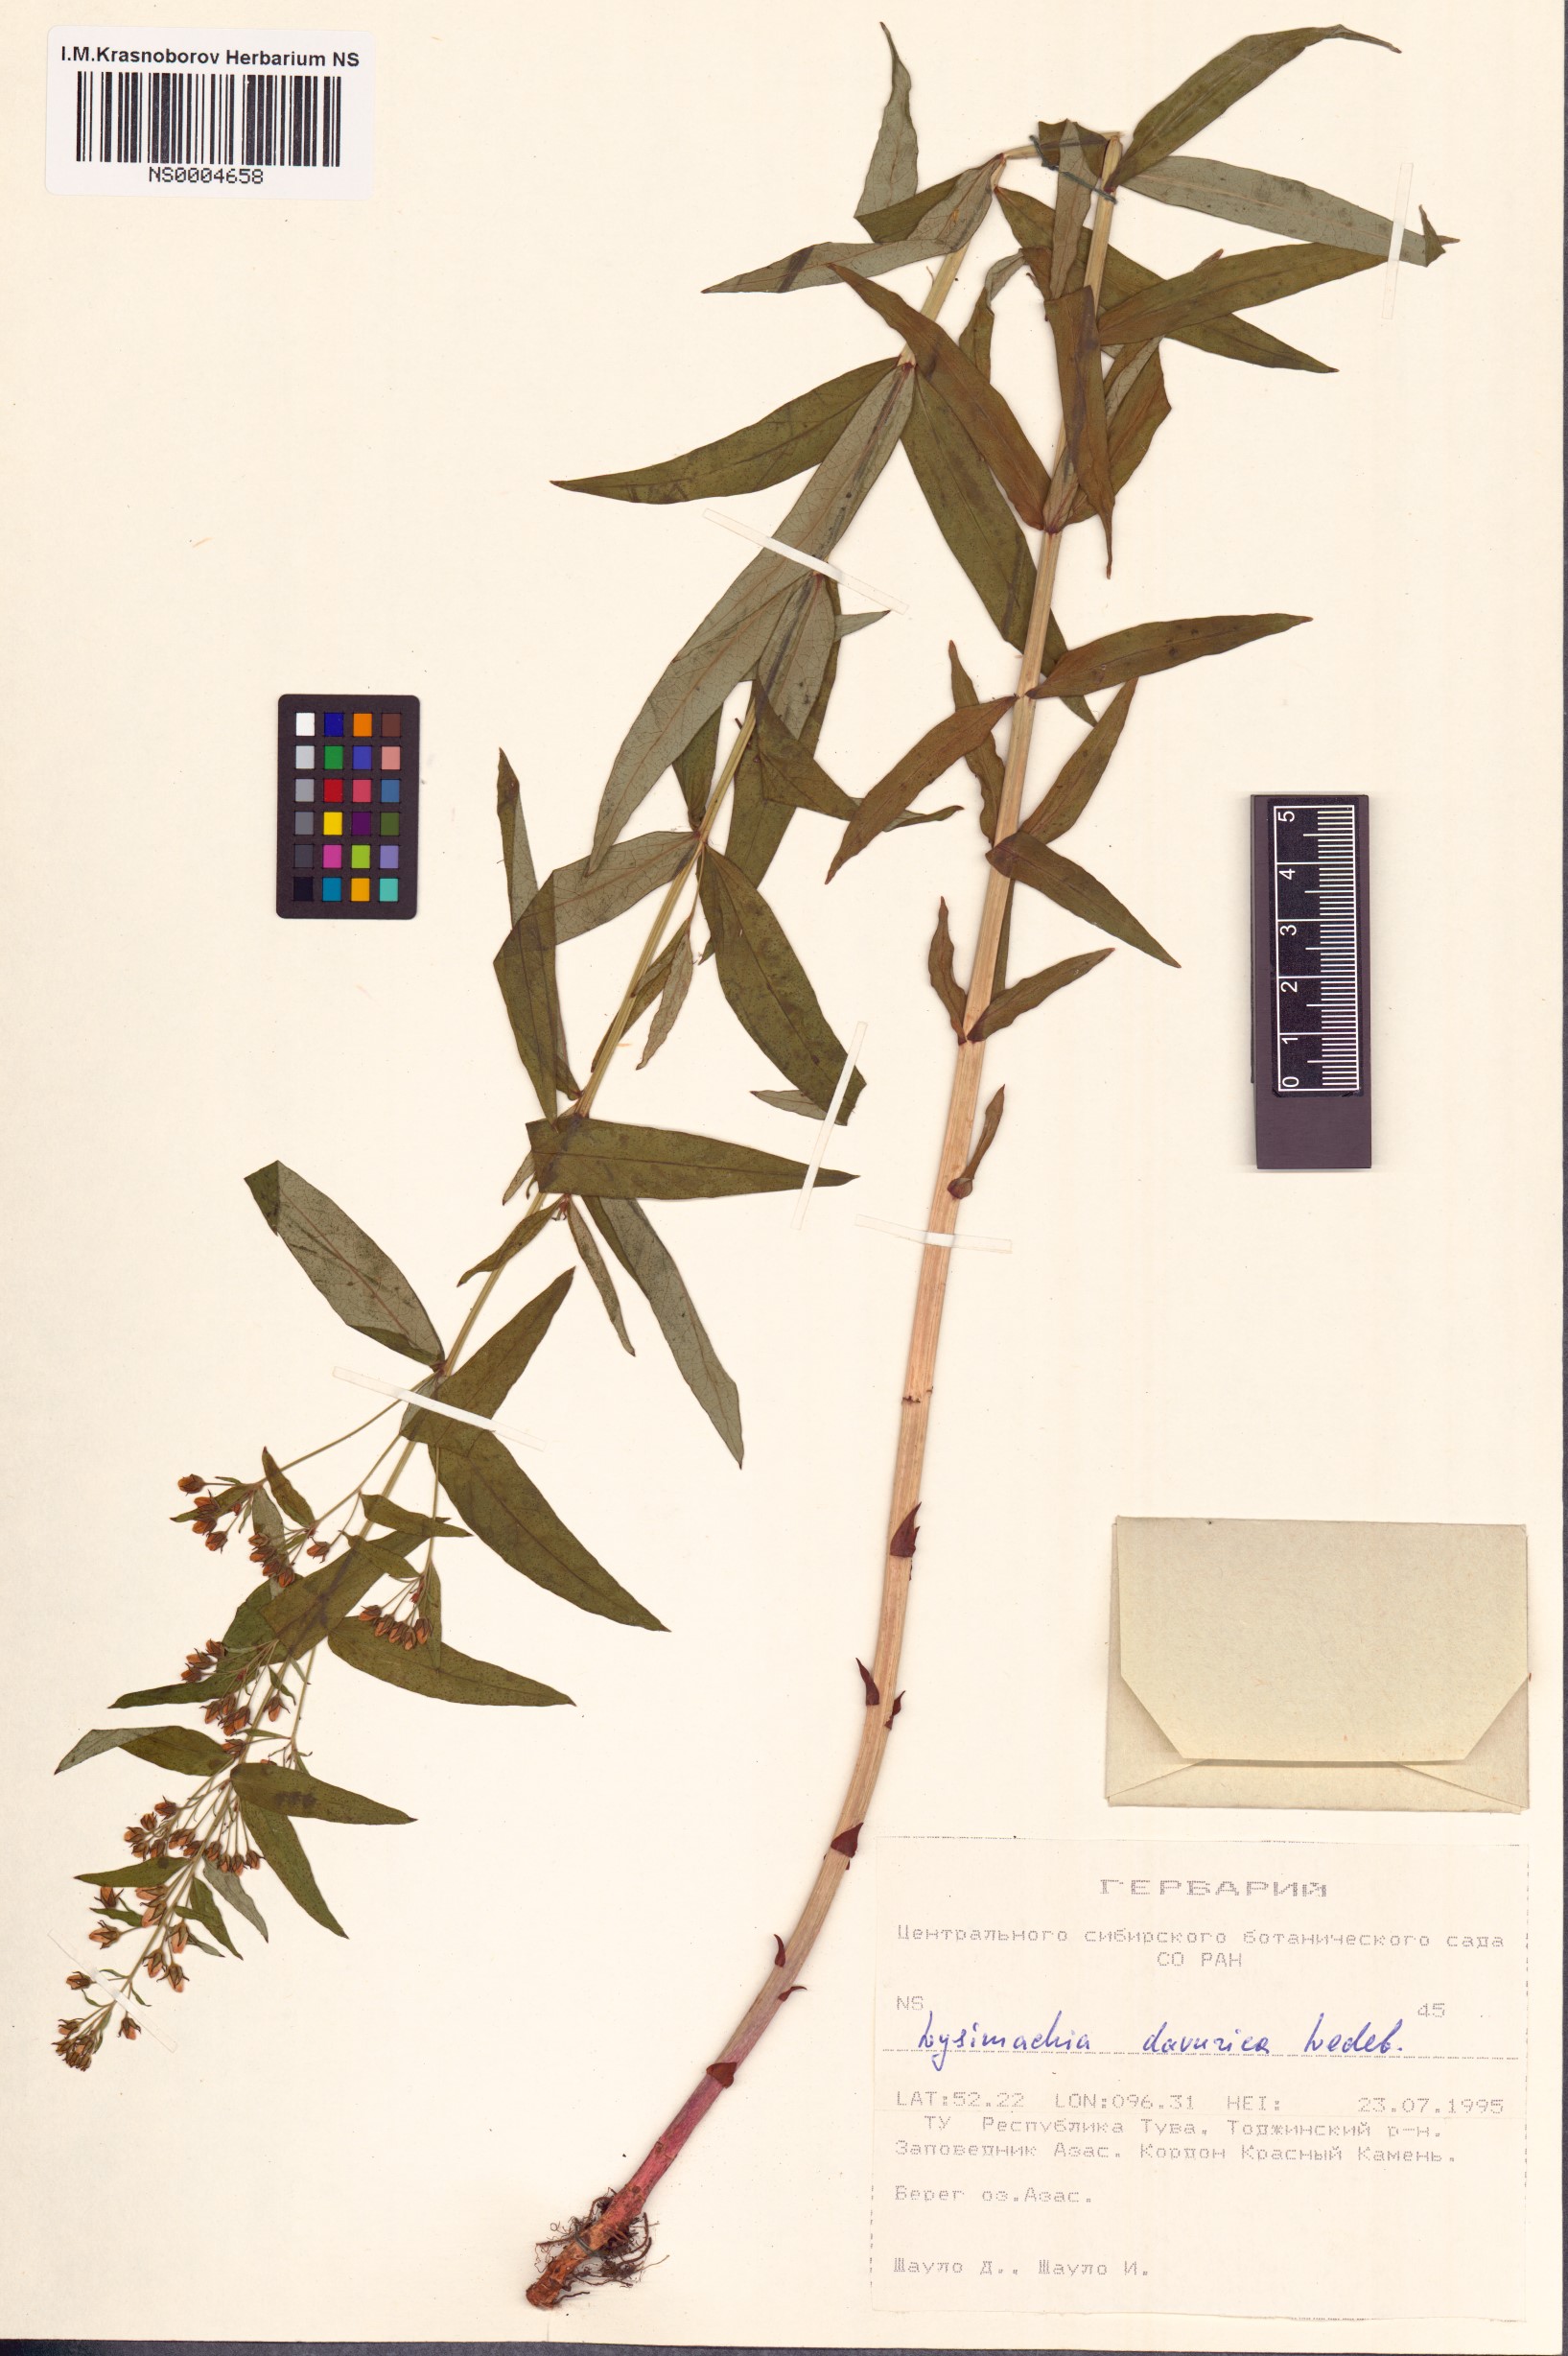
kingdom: Plantae
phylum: Tracheophyta
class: Magnoliopsida
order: Ericales
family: Primulaceae
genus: Lysimachia
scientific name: Lysimachia davurica
